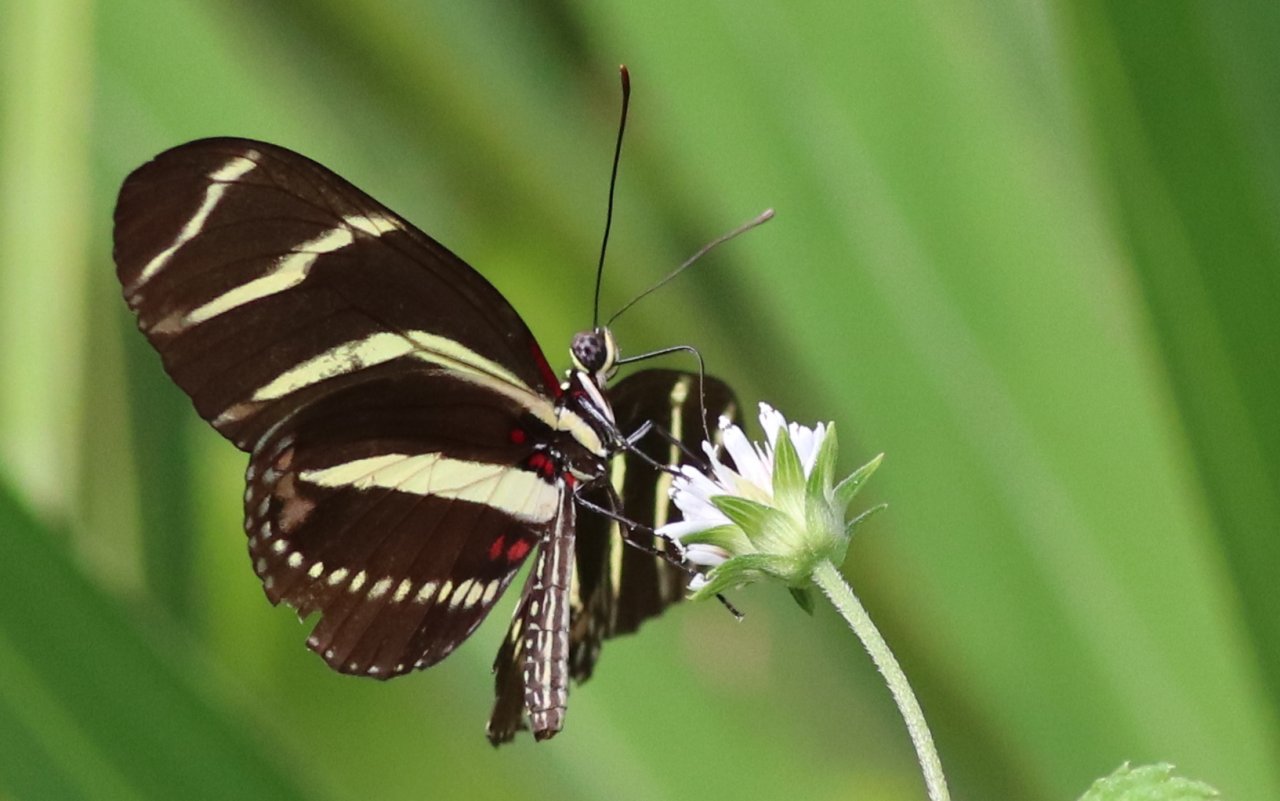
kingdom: Animalia
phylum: Arthropoda
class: Insecta
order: Lepidoptera
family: Nymphalidae
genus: Heliconius
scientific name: Heliconius charithonia
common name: Zebra Longwing
